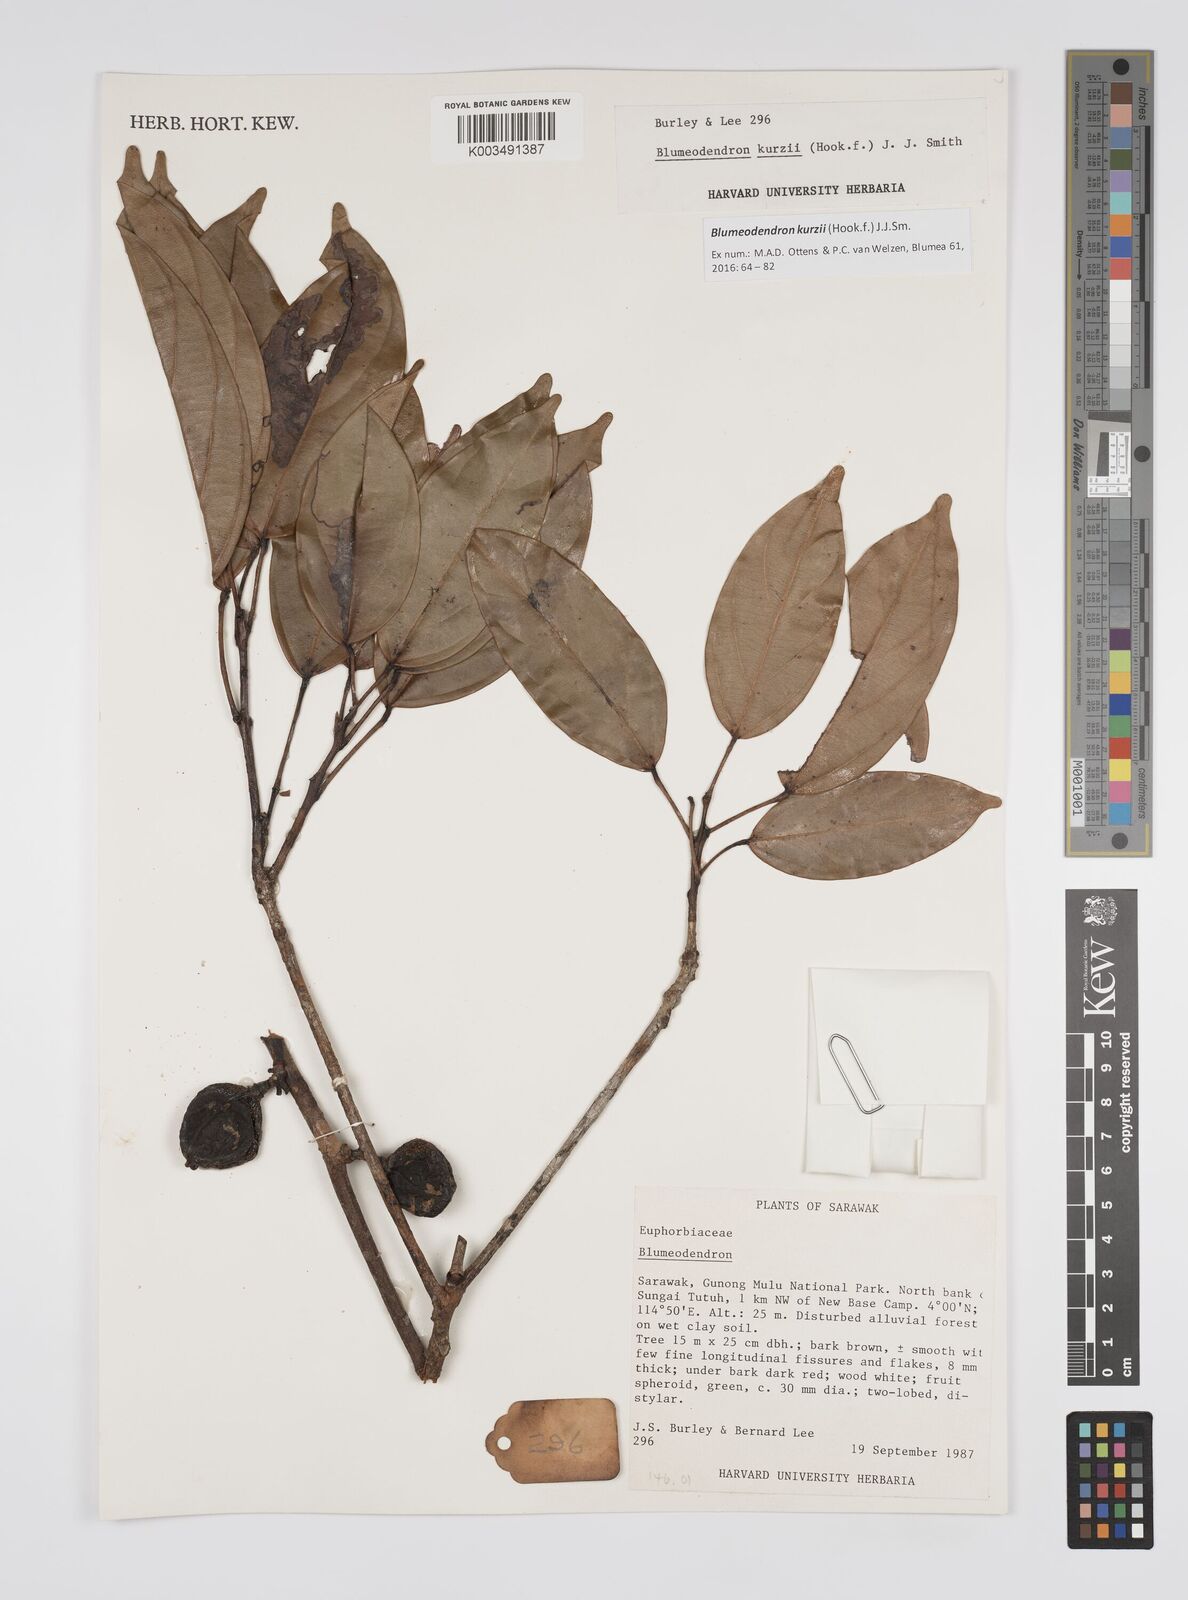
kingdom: Plantae
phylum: Tracheophyta
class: Magnoliopsida
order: Malpighiales
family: Euphorbiaceae
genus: Blumeodendron
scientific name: Blumeodendron kurzii
